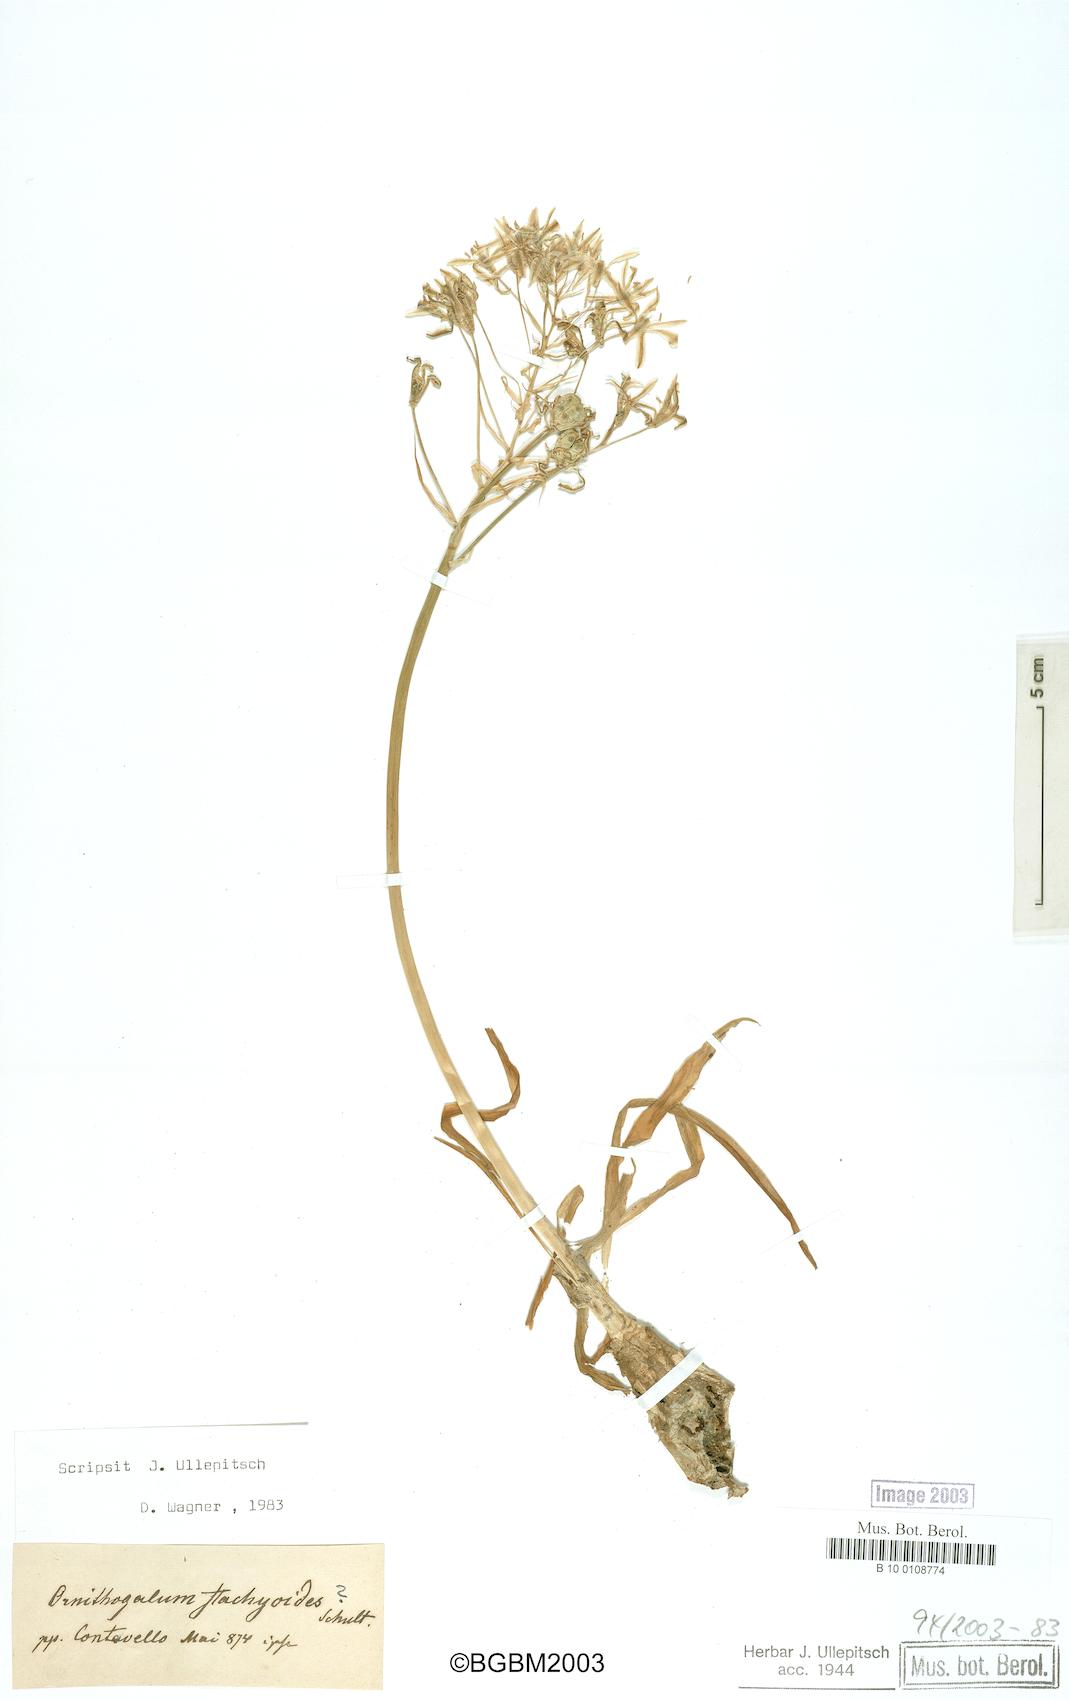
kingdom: Plantae
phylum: Tracheophyta
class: Liliopsida
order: Asparagales
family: Asparagaceae
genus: Ornithogalum
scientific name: Ornithogalum narbonense
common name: Bath-asparagus
